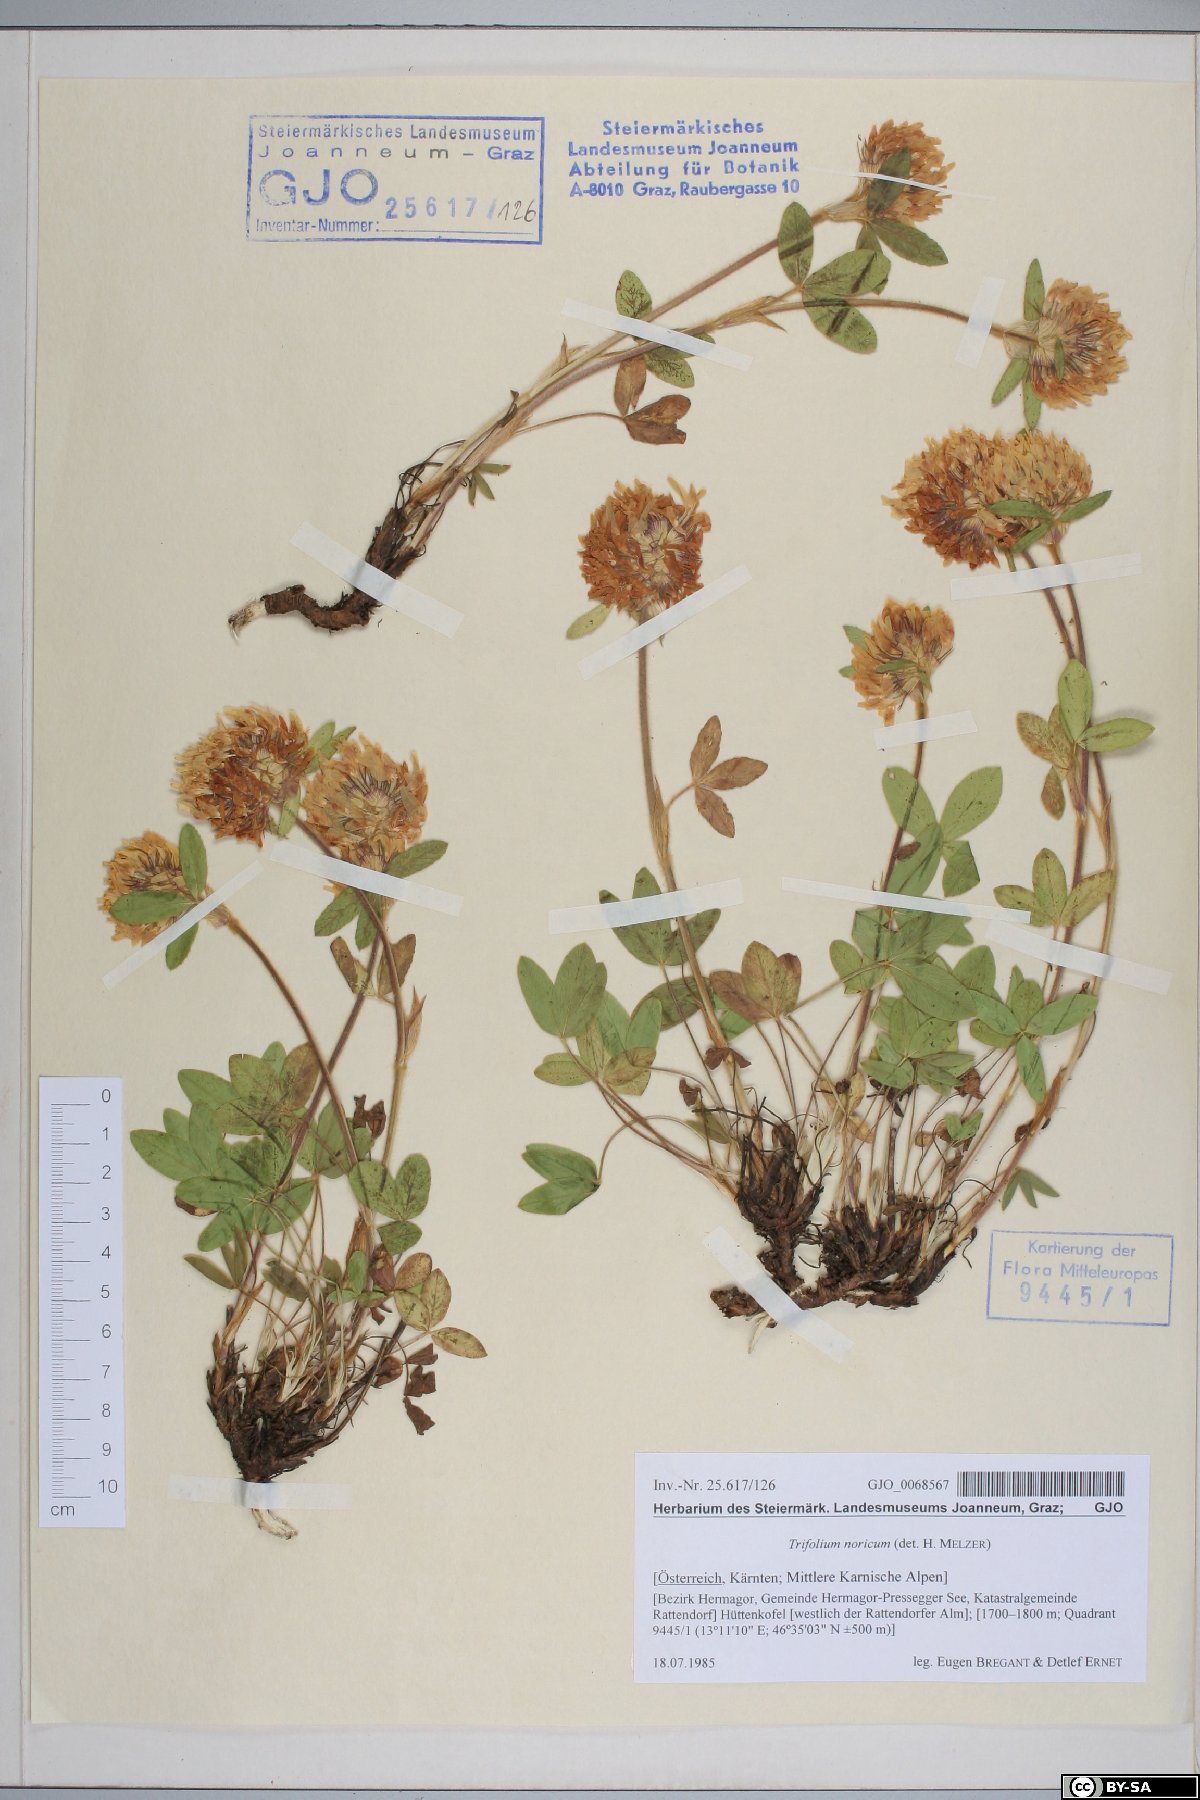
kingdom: Plantae
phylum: Tracheophyta
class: Magnoliopsida
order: Fabales
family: Fabaceae
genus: Trifolium
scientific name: Trifolium noricum
